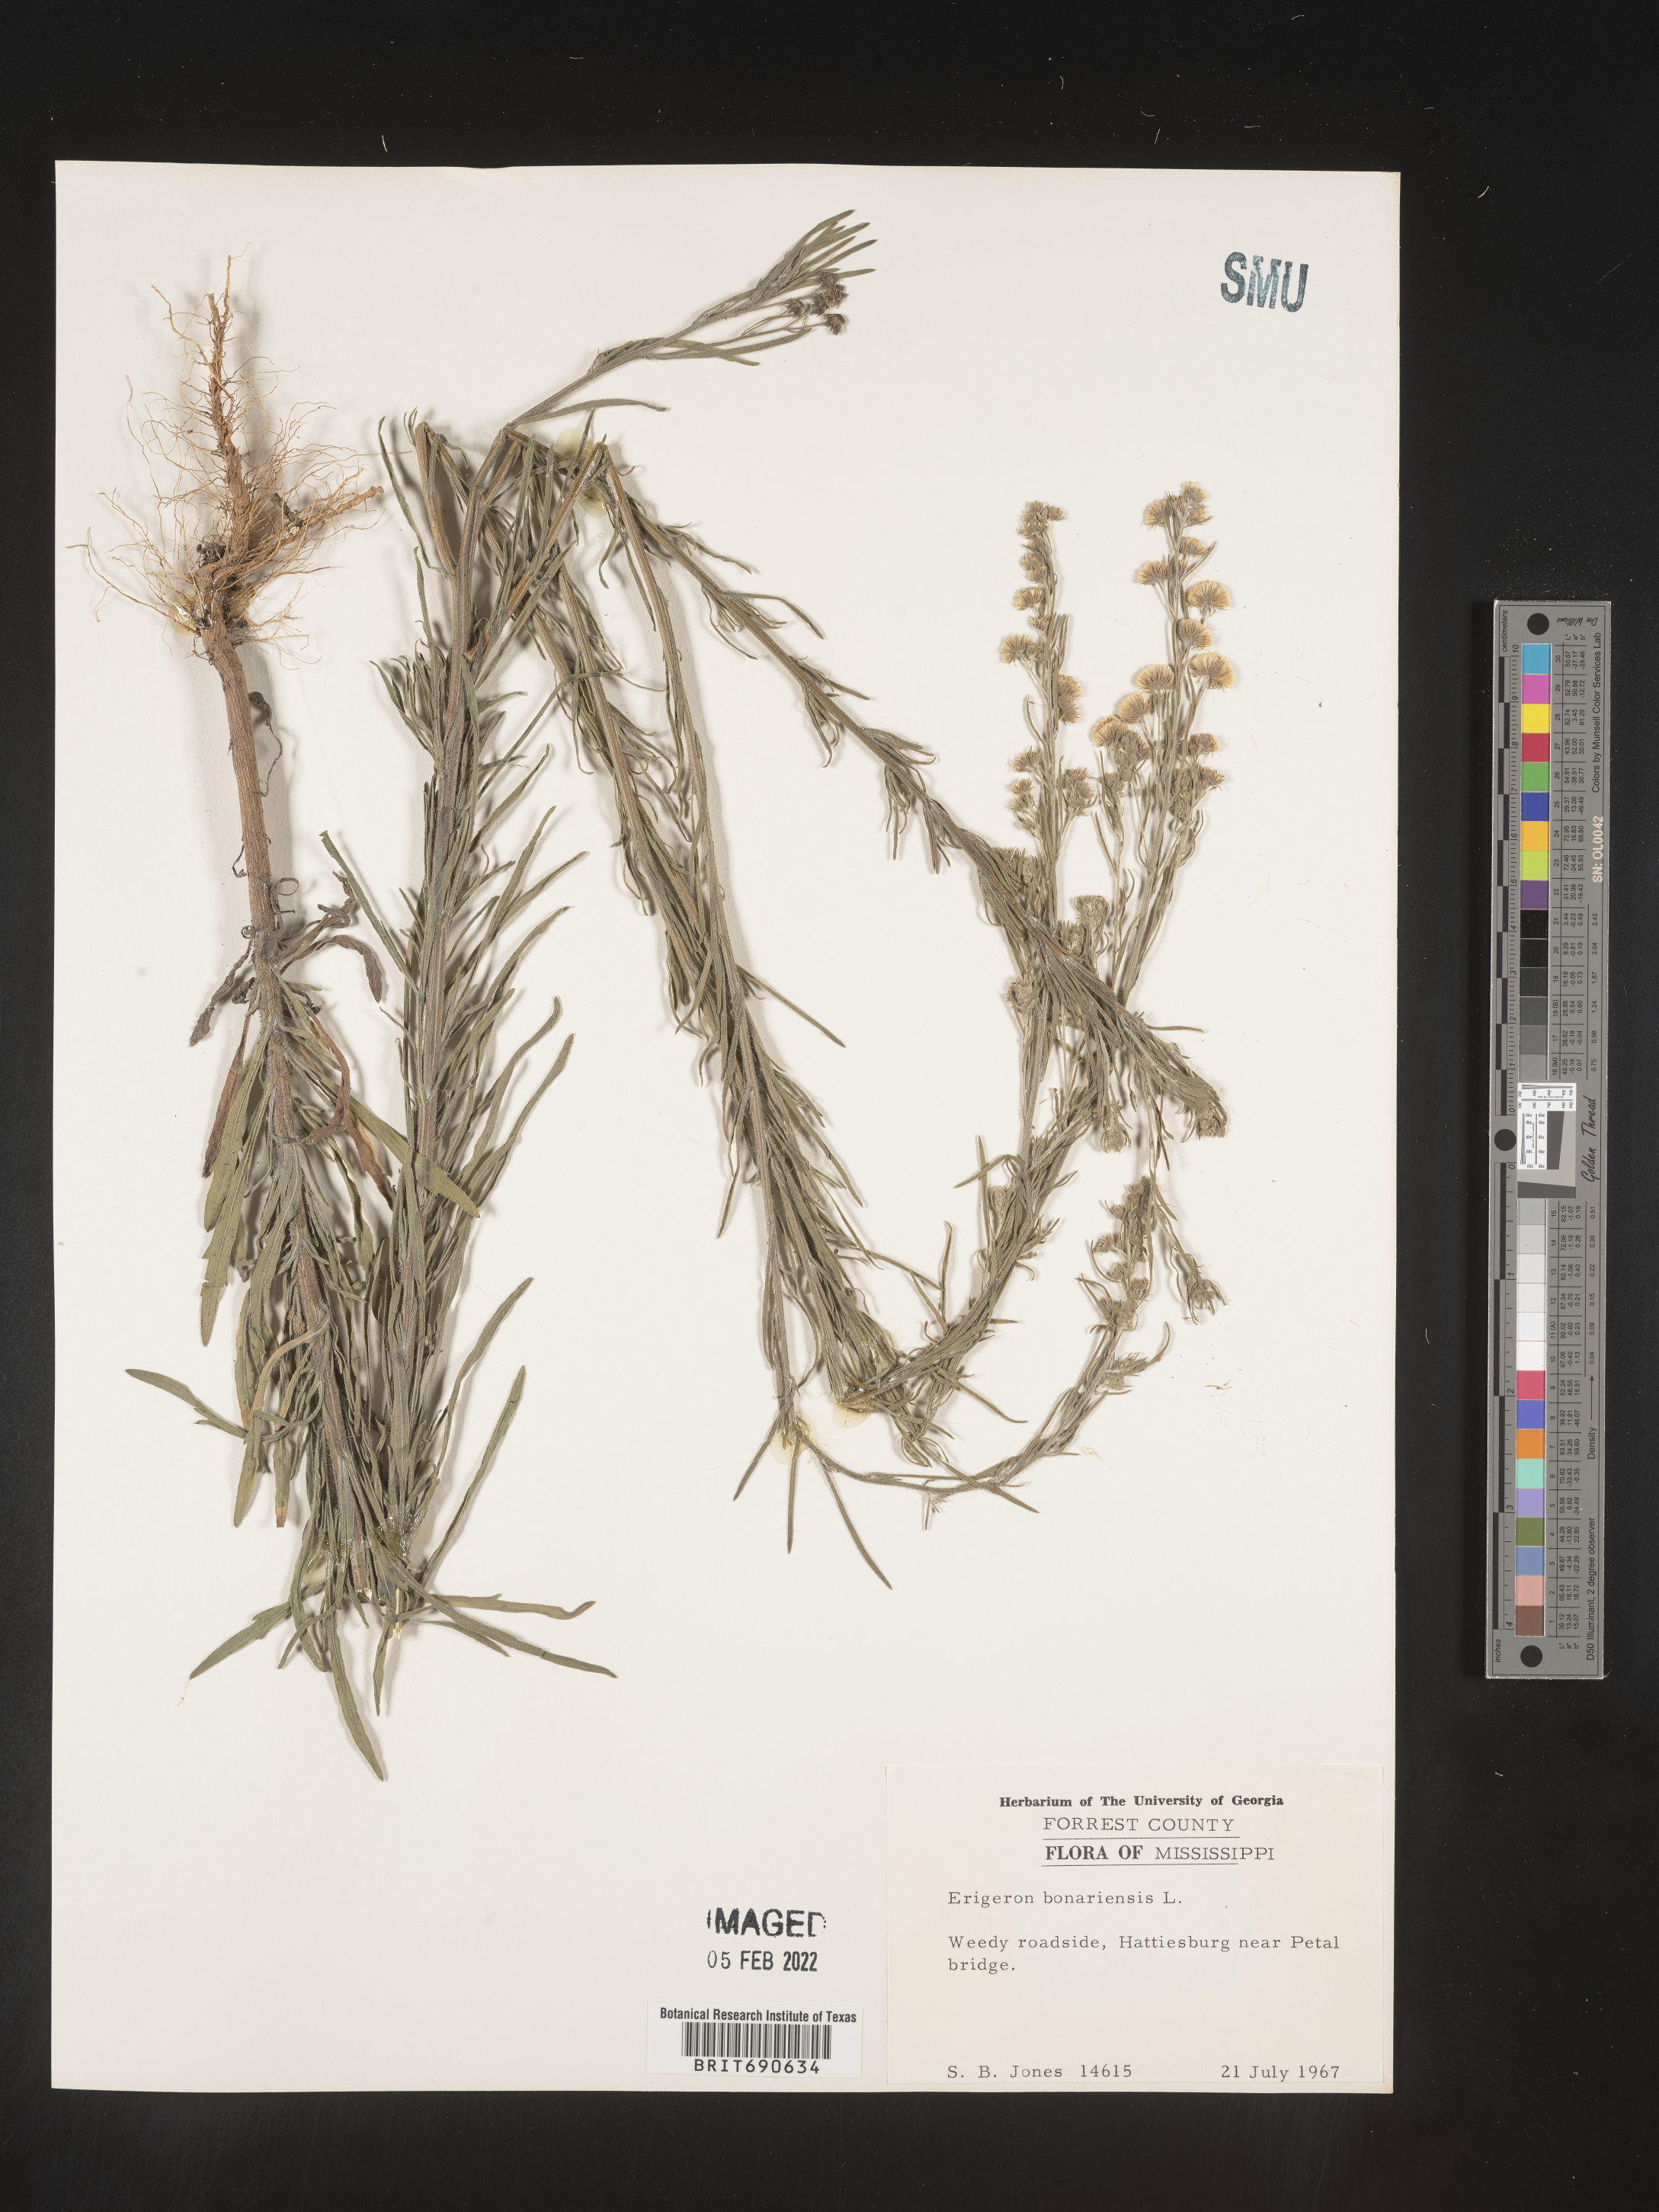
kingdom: Plantae
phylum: Tracheophyta
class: Magnoliopsida
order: Asterales
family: Asteraceae
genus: Erigeron
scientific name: Erigeron bonariensis
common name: Argentine fleabane
